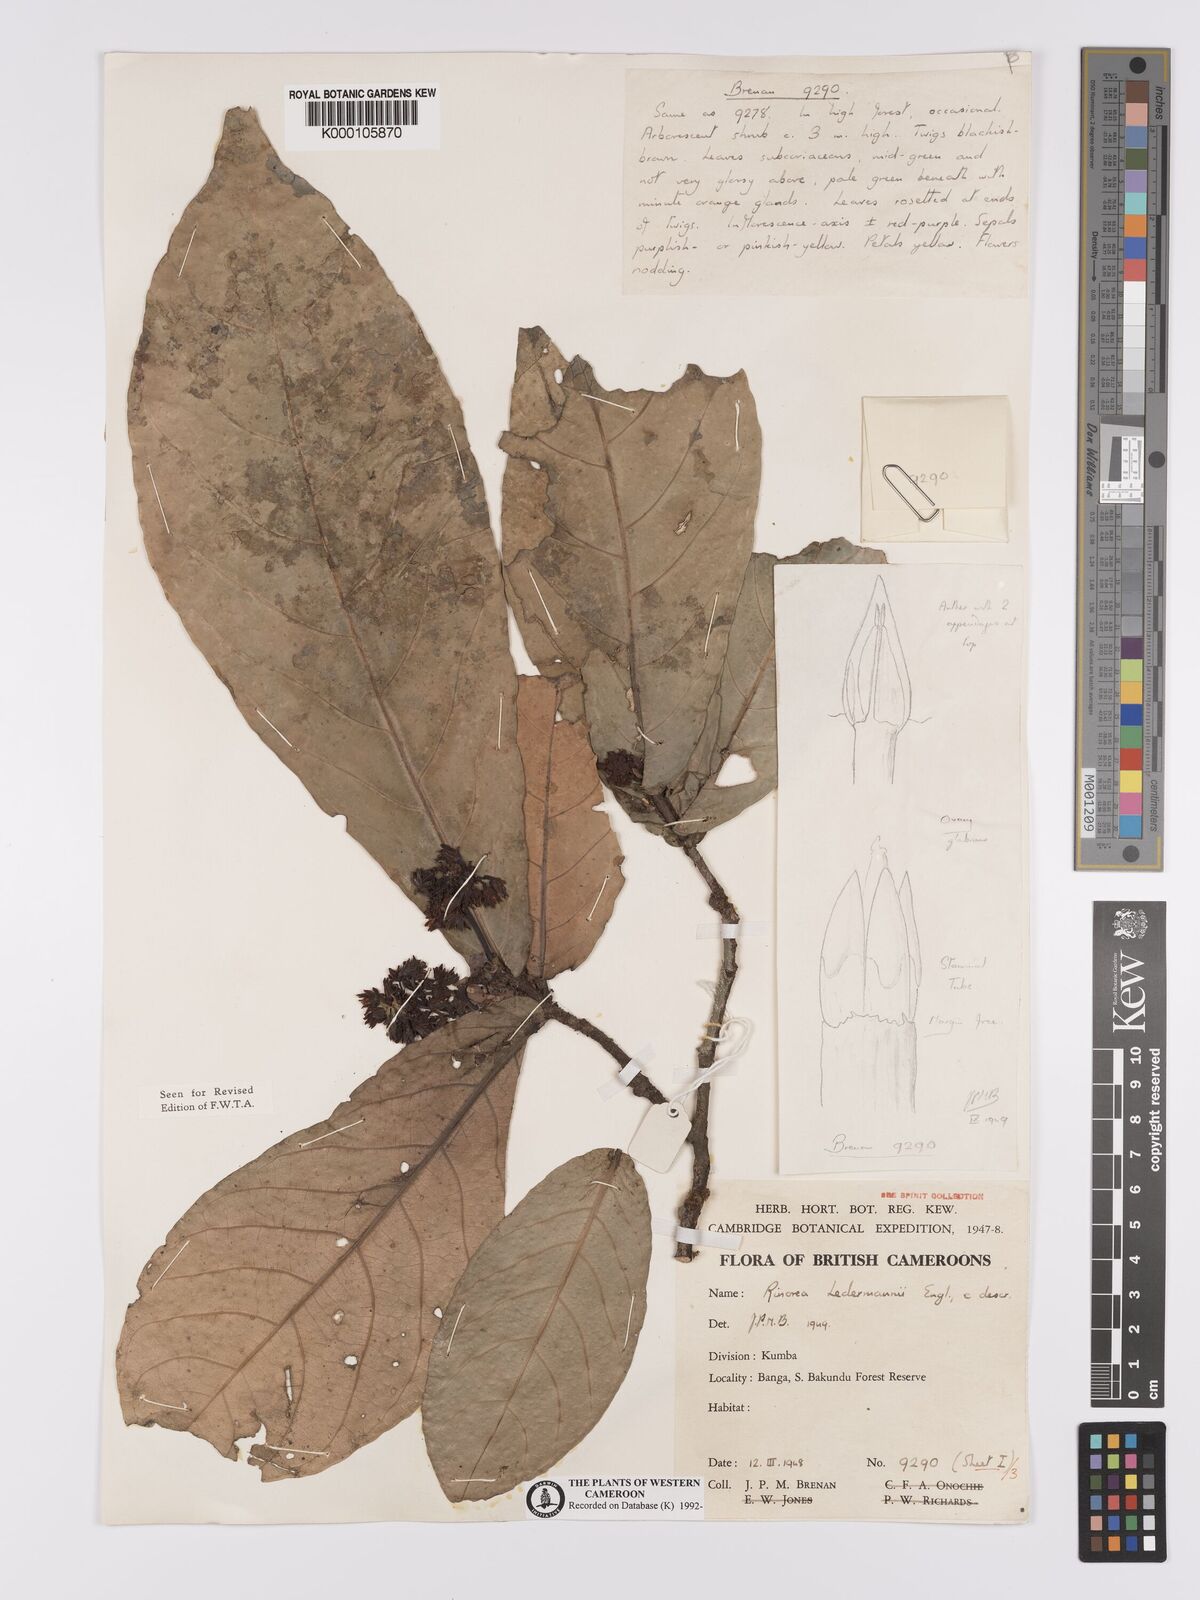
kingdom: Plantae
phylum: Tracheophyta
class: Magnoliopsida
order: Malpighiales
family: Violaceae
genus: Rinorea
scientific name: Rinorea ledermannii
